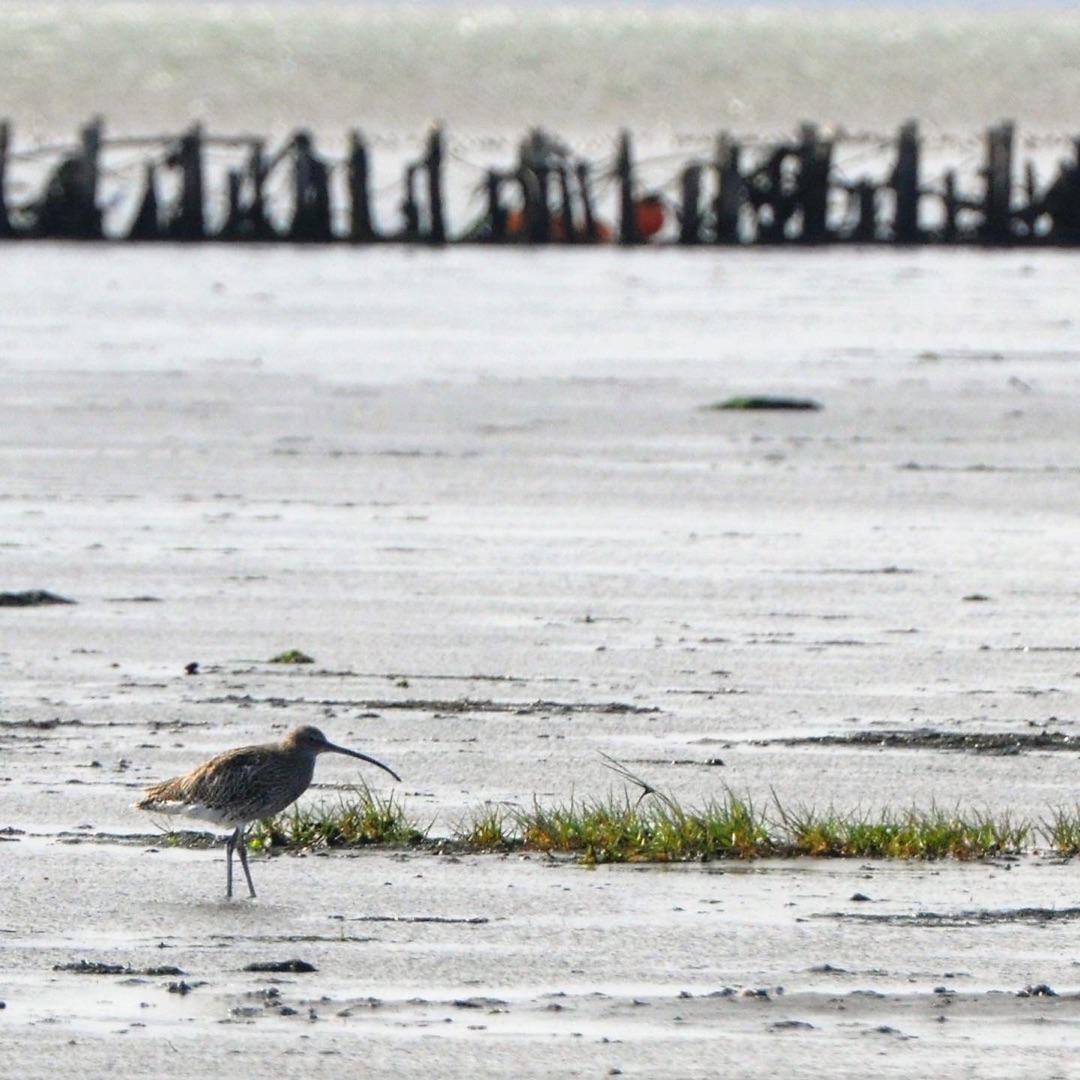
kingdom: Animalia
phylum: Chordata
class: Aves
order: Charadriiformes
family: Scolopacidae
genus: Numenius
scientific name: Numenius arquata
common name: Storspove
